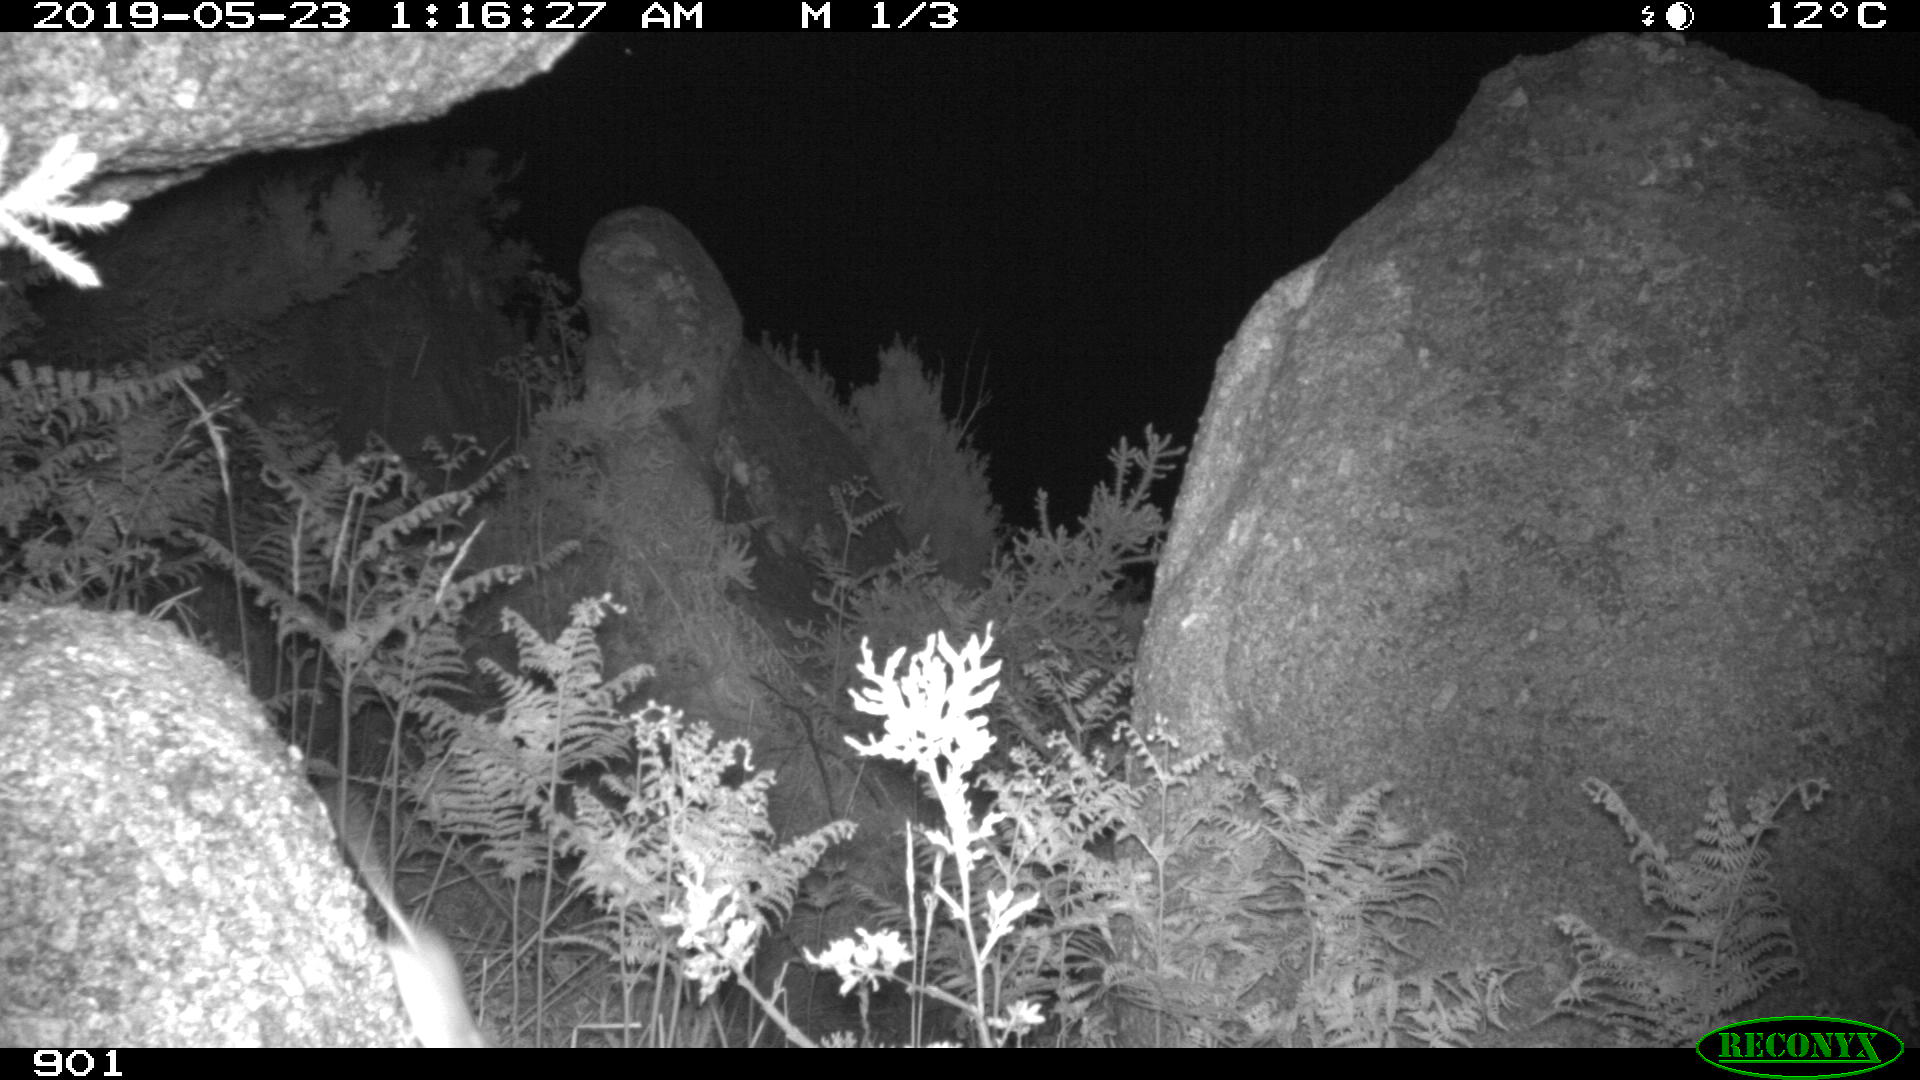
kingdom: Animalia
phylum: Chordata
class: Mammalia
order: Rodentia
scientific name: Rodentia
